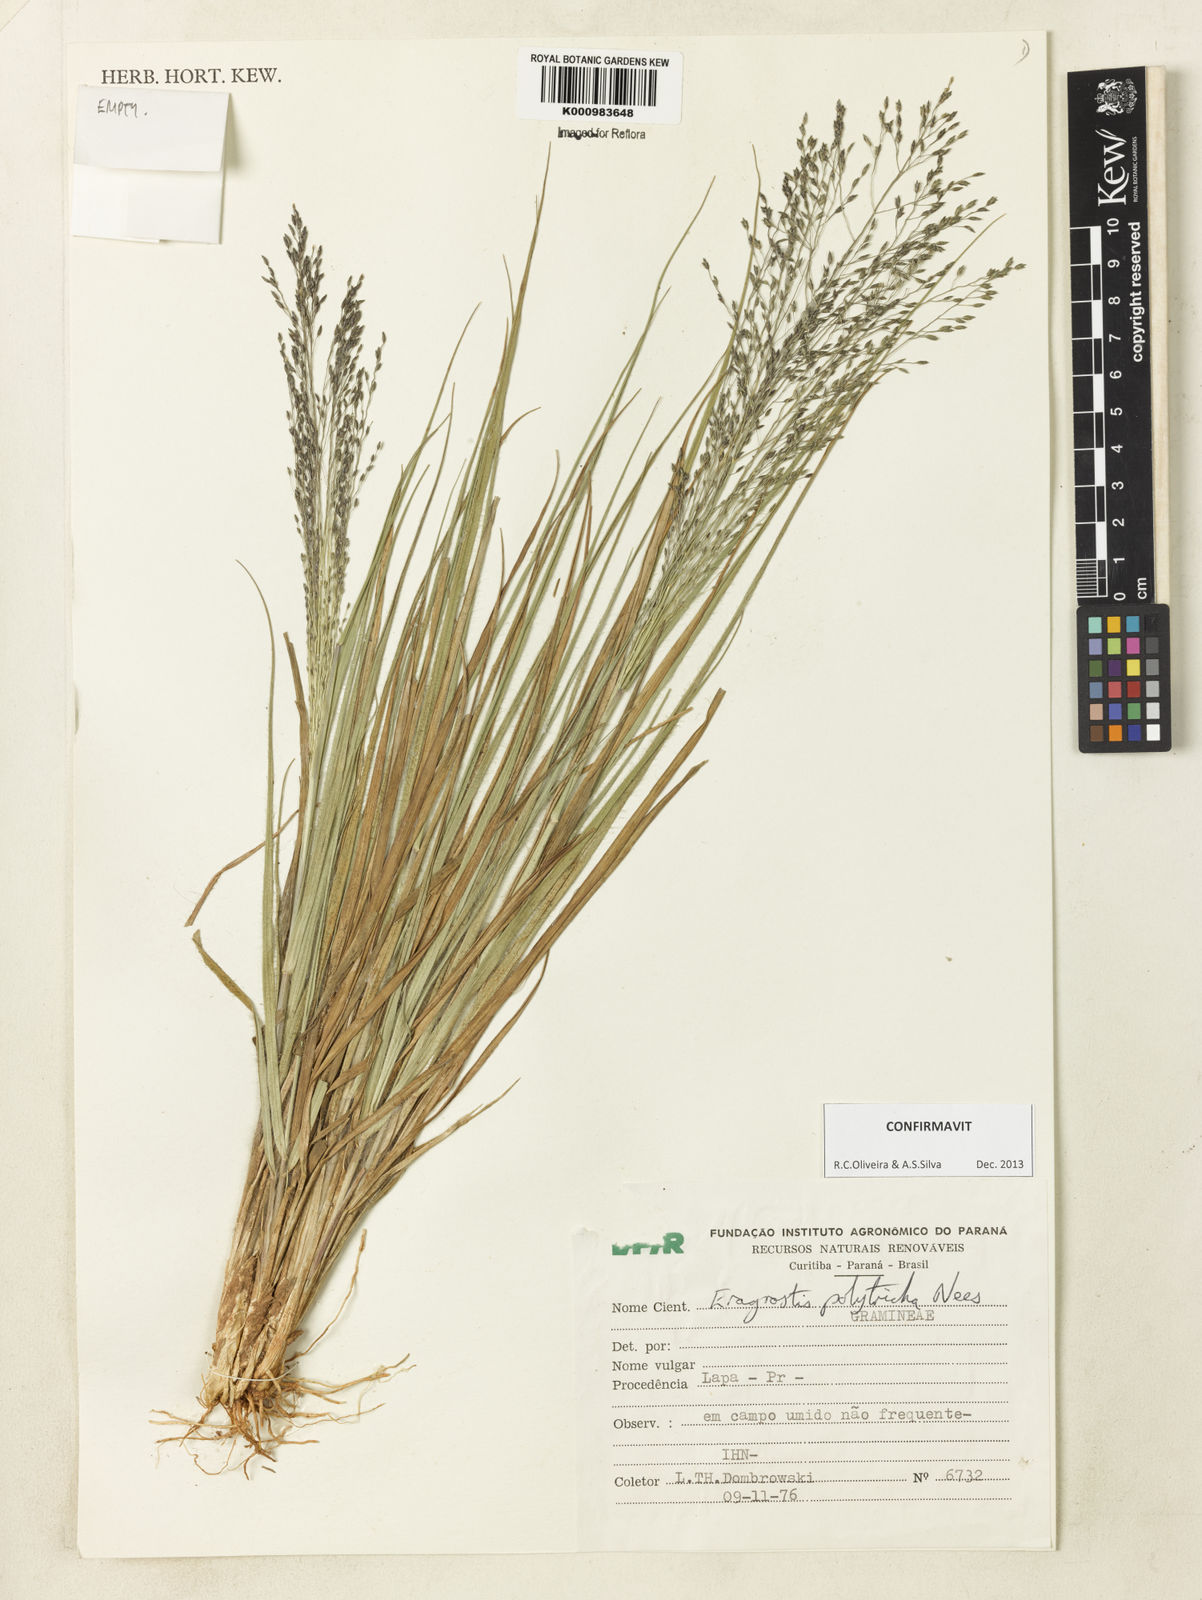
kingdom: Plantae
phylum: Tracheophyta
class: Liliopsida
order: Poales
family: Poaceae
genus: Eragrostis
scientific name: Eragrostis polytricha
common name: Hairy-sheath love grass
